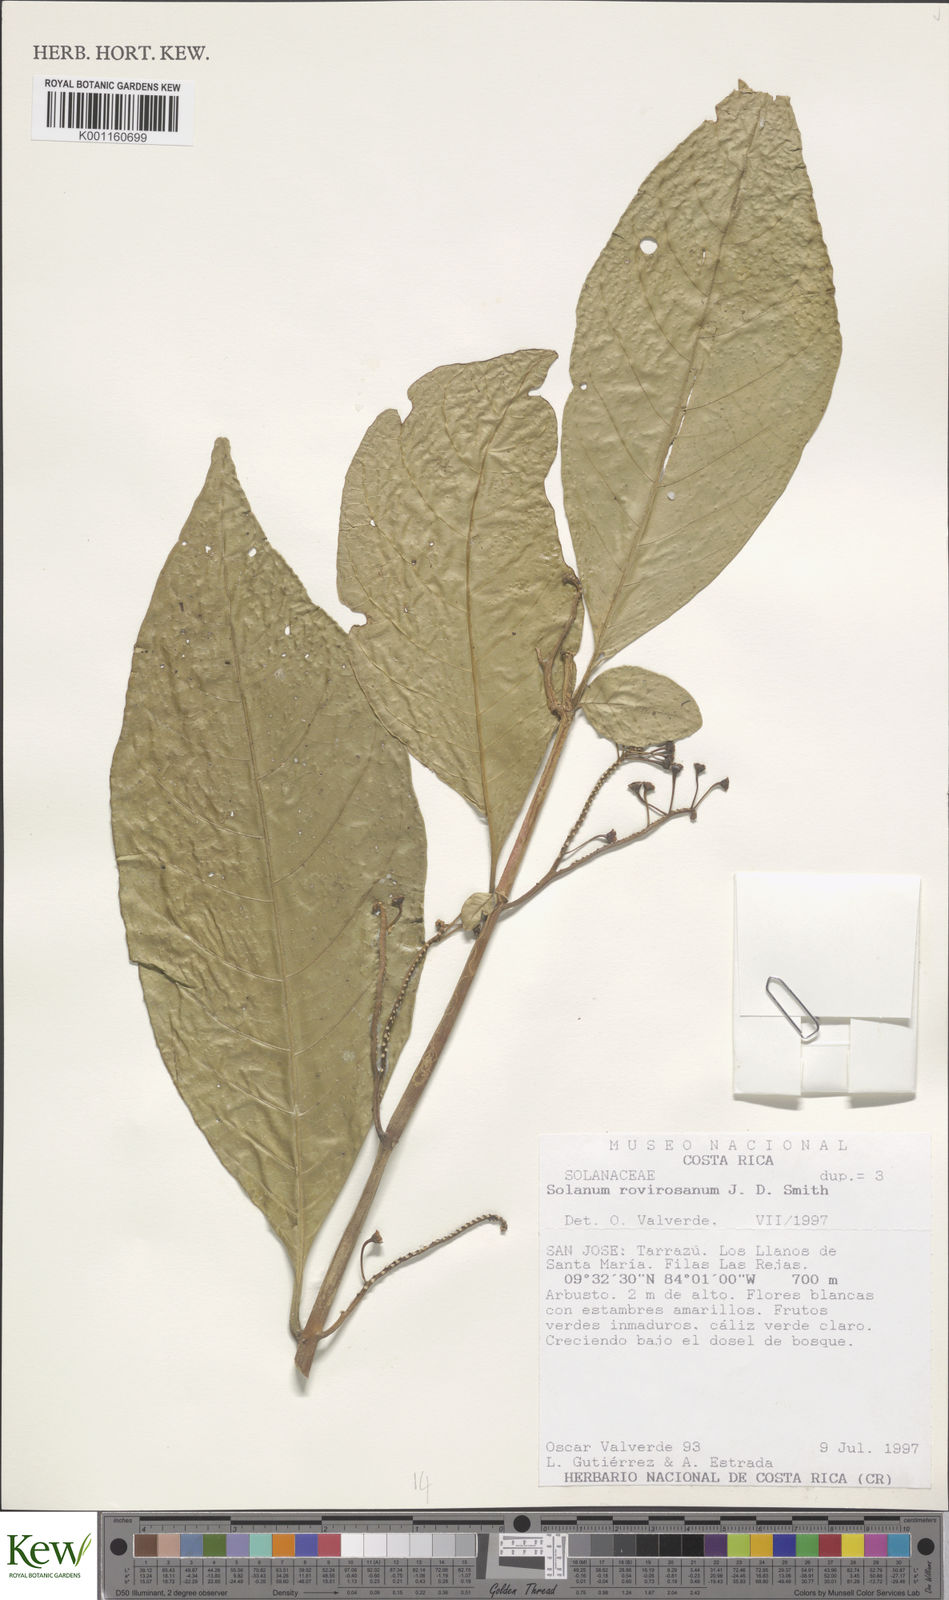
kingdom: Plantae
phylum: Tracheophyta
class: Magnoliopsida
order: Solanales
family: Solanaceae
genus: Solanum
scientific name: Solanum rovirosanum
